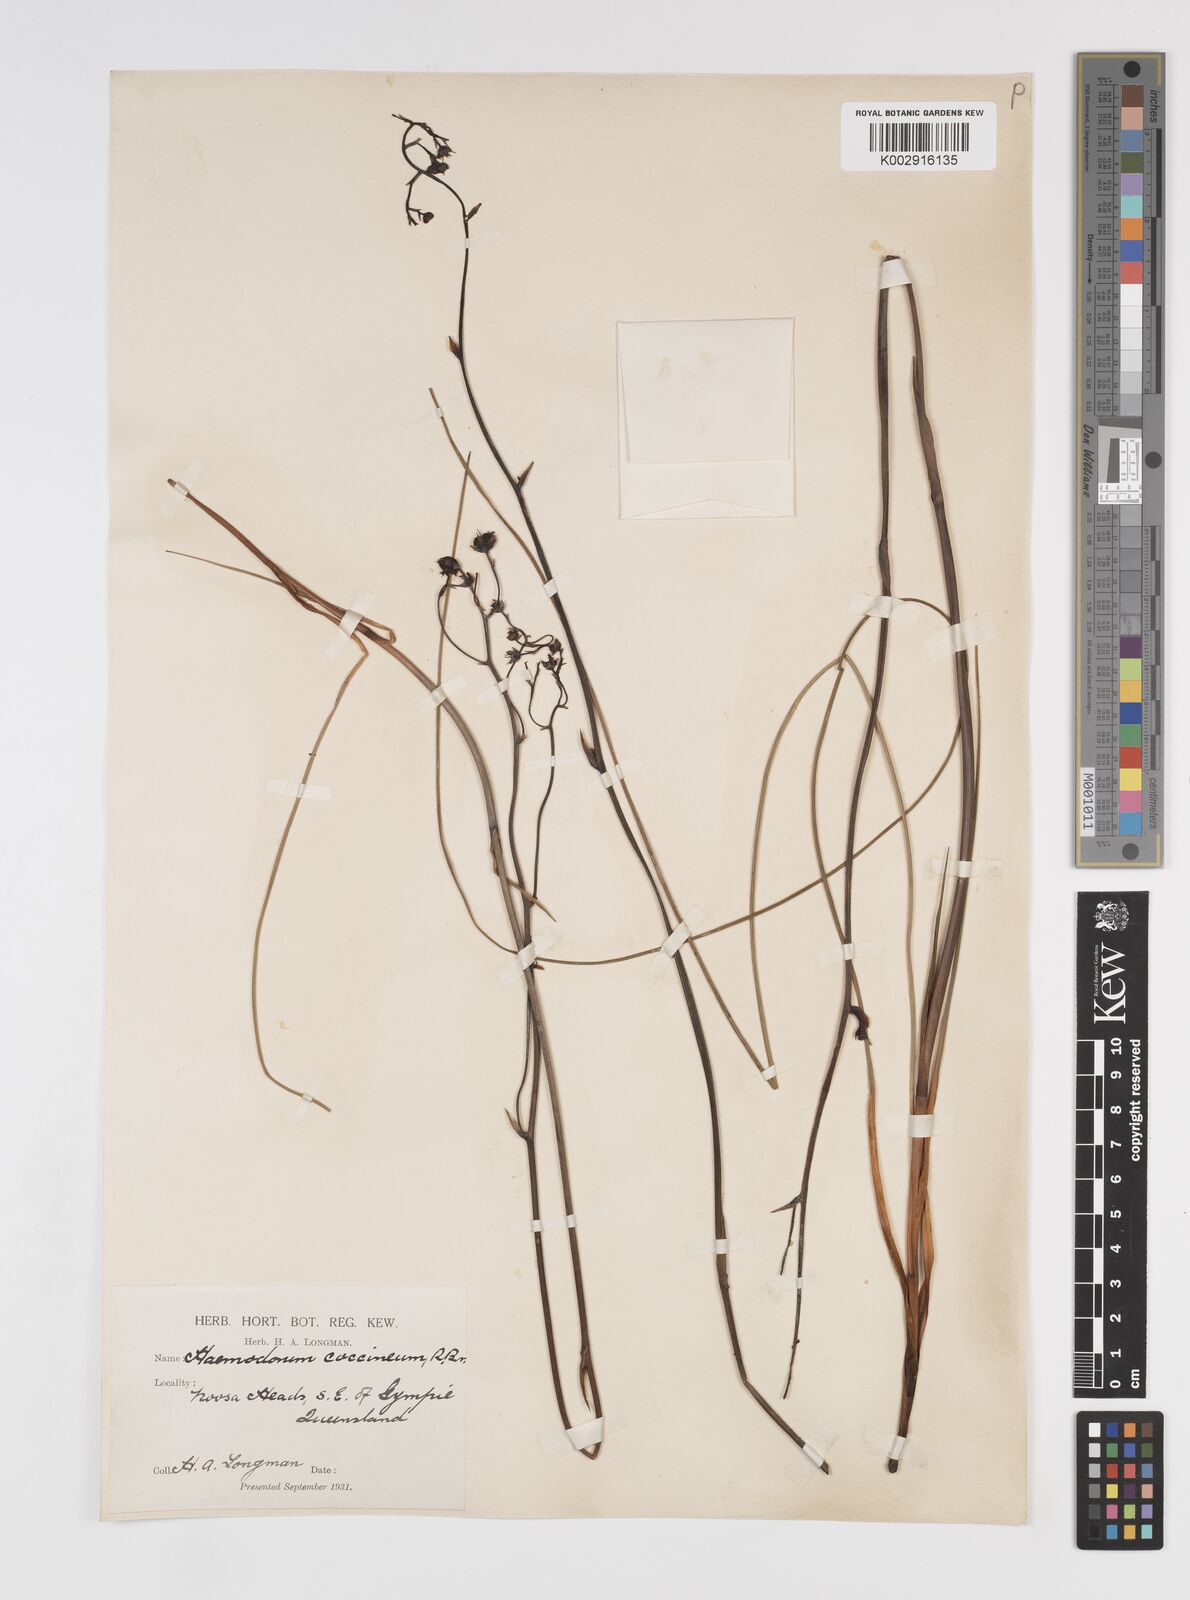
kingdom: Plantae
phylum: Tracheophyta
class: Liliopsida
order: Commelinales
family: Haemodoraceae
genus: Haemodorum
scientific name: Haemodorum coccineum
